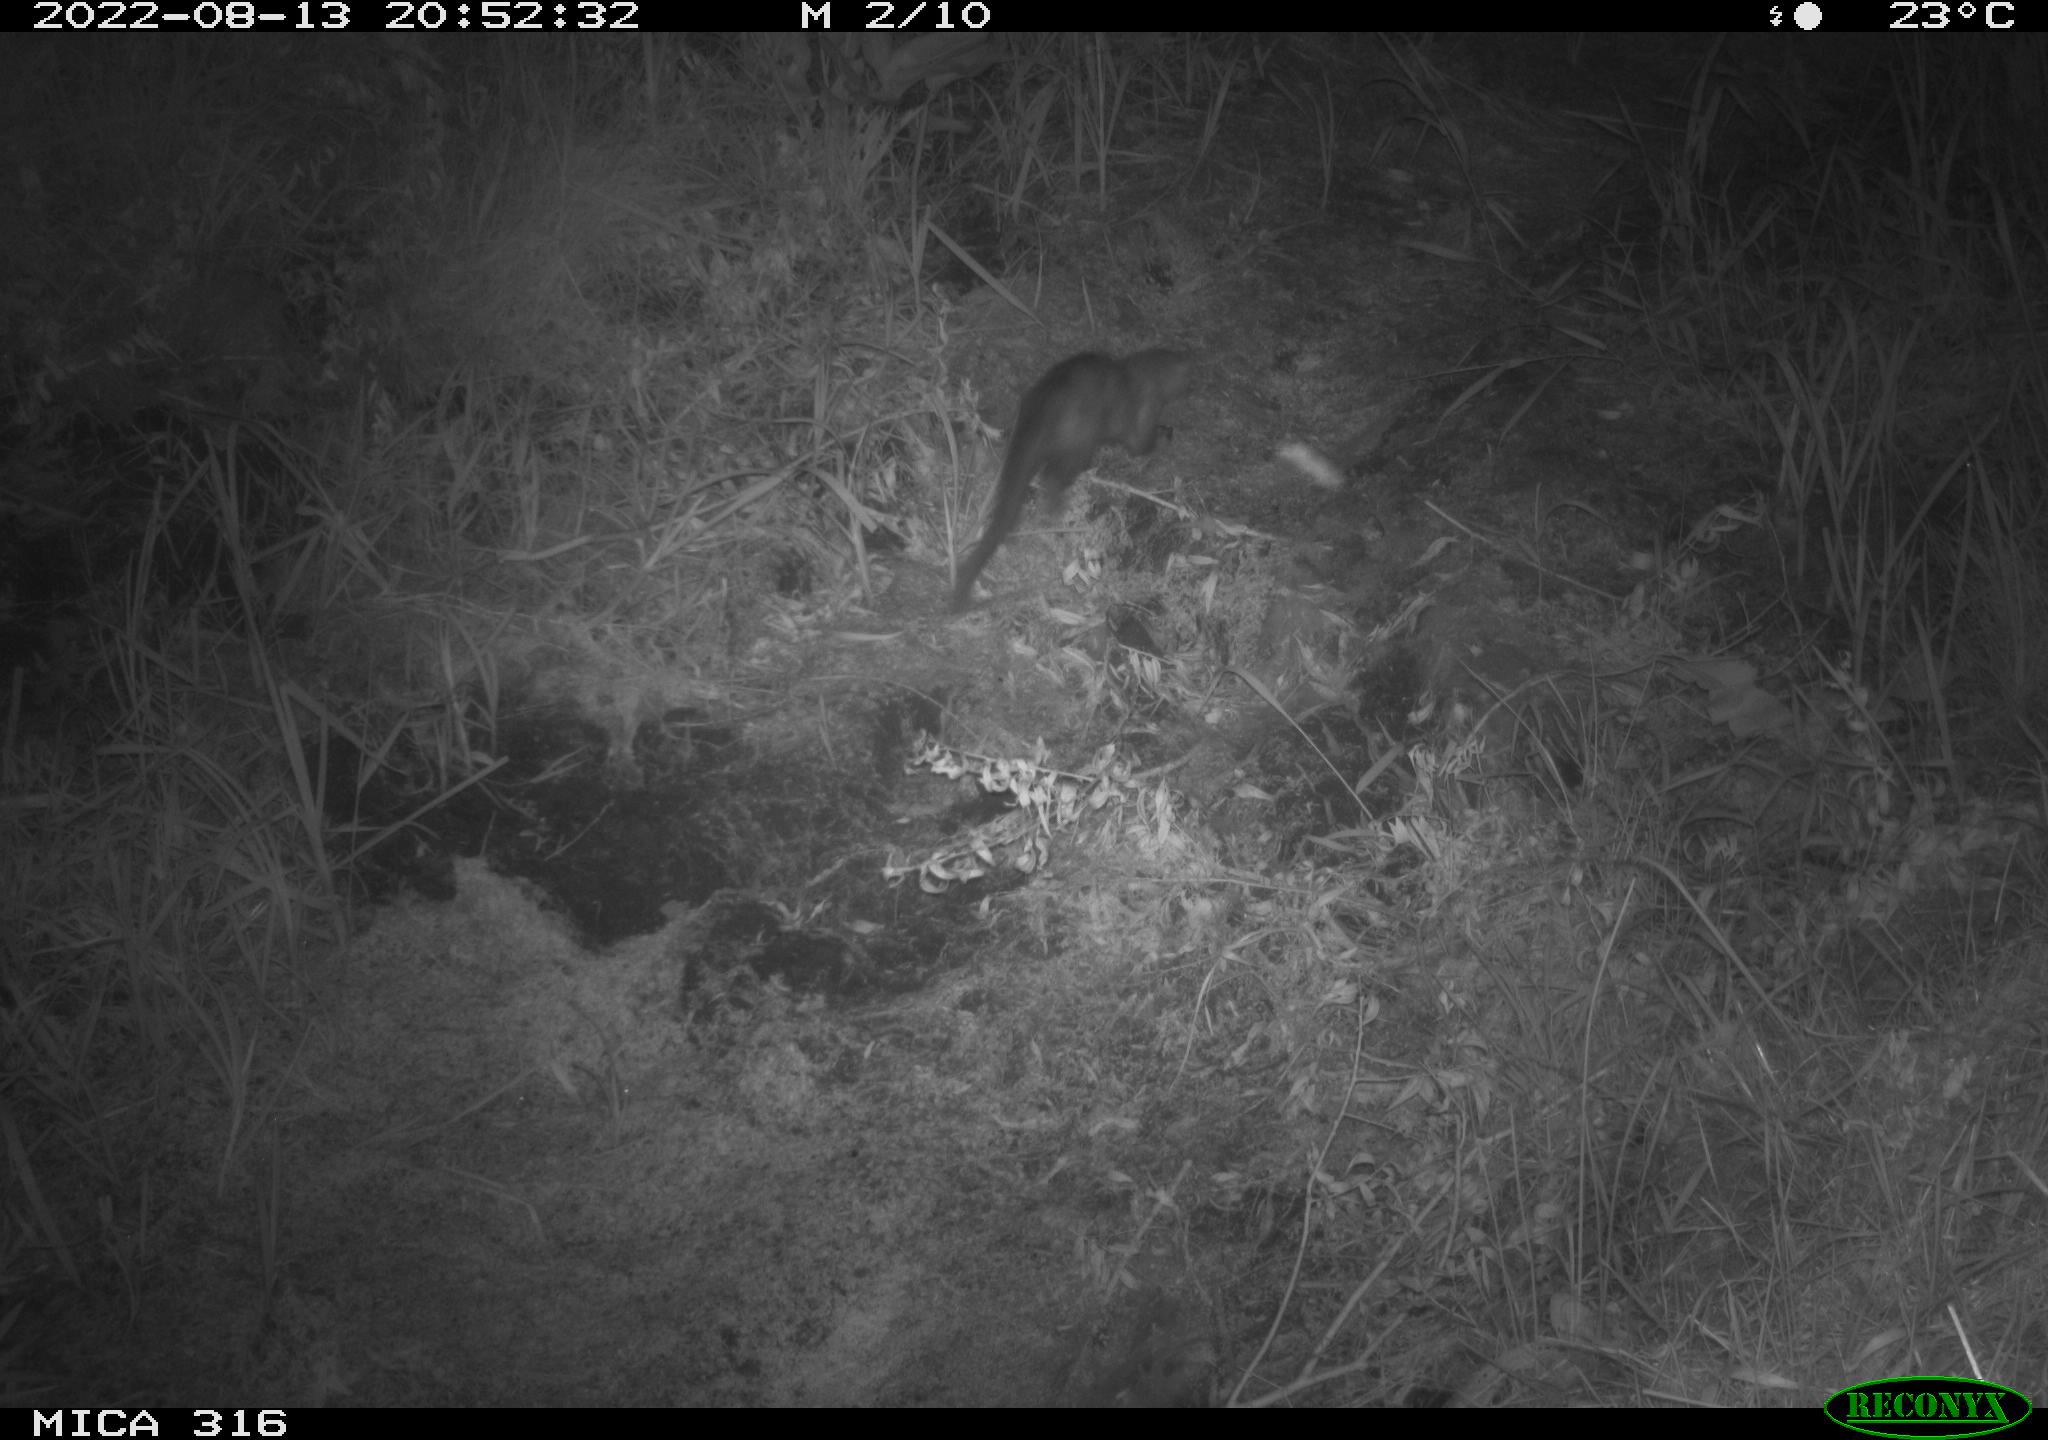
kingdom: Animalia
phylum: Chordata
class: Mammalia
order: Carnivora
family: Mustelidae
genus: Martes
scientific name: Martes martes
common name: European pine marten
